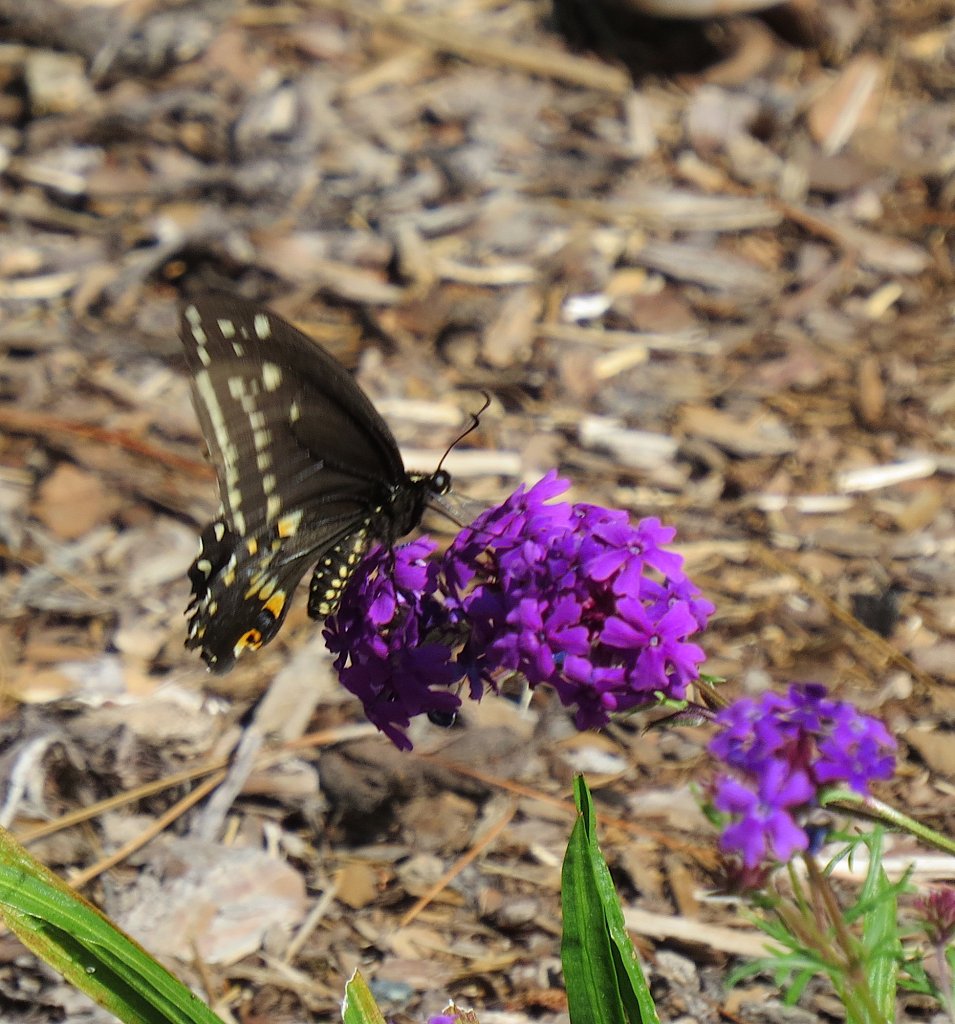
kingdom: Animalia
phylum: Arthropoda
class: Insecta
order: Lepidoptera
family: Papilionidae
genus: Papilio
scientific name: Papilio polyxenes
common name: Black Swallowtail
